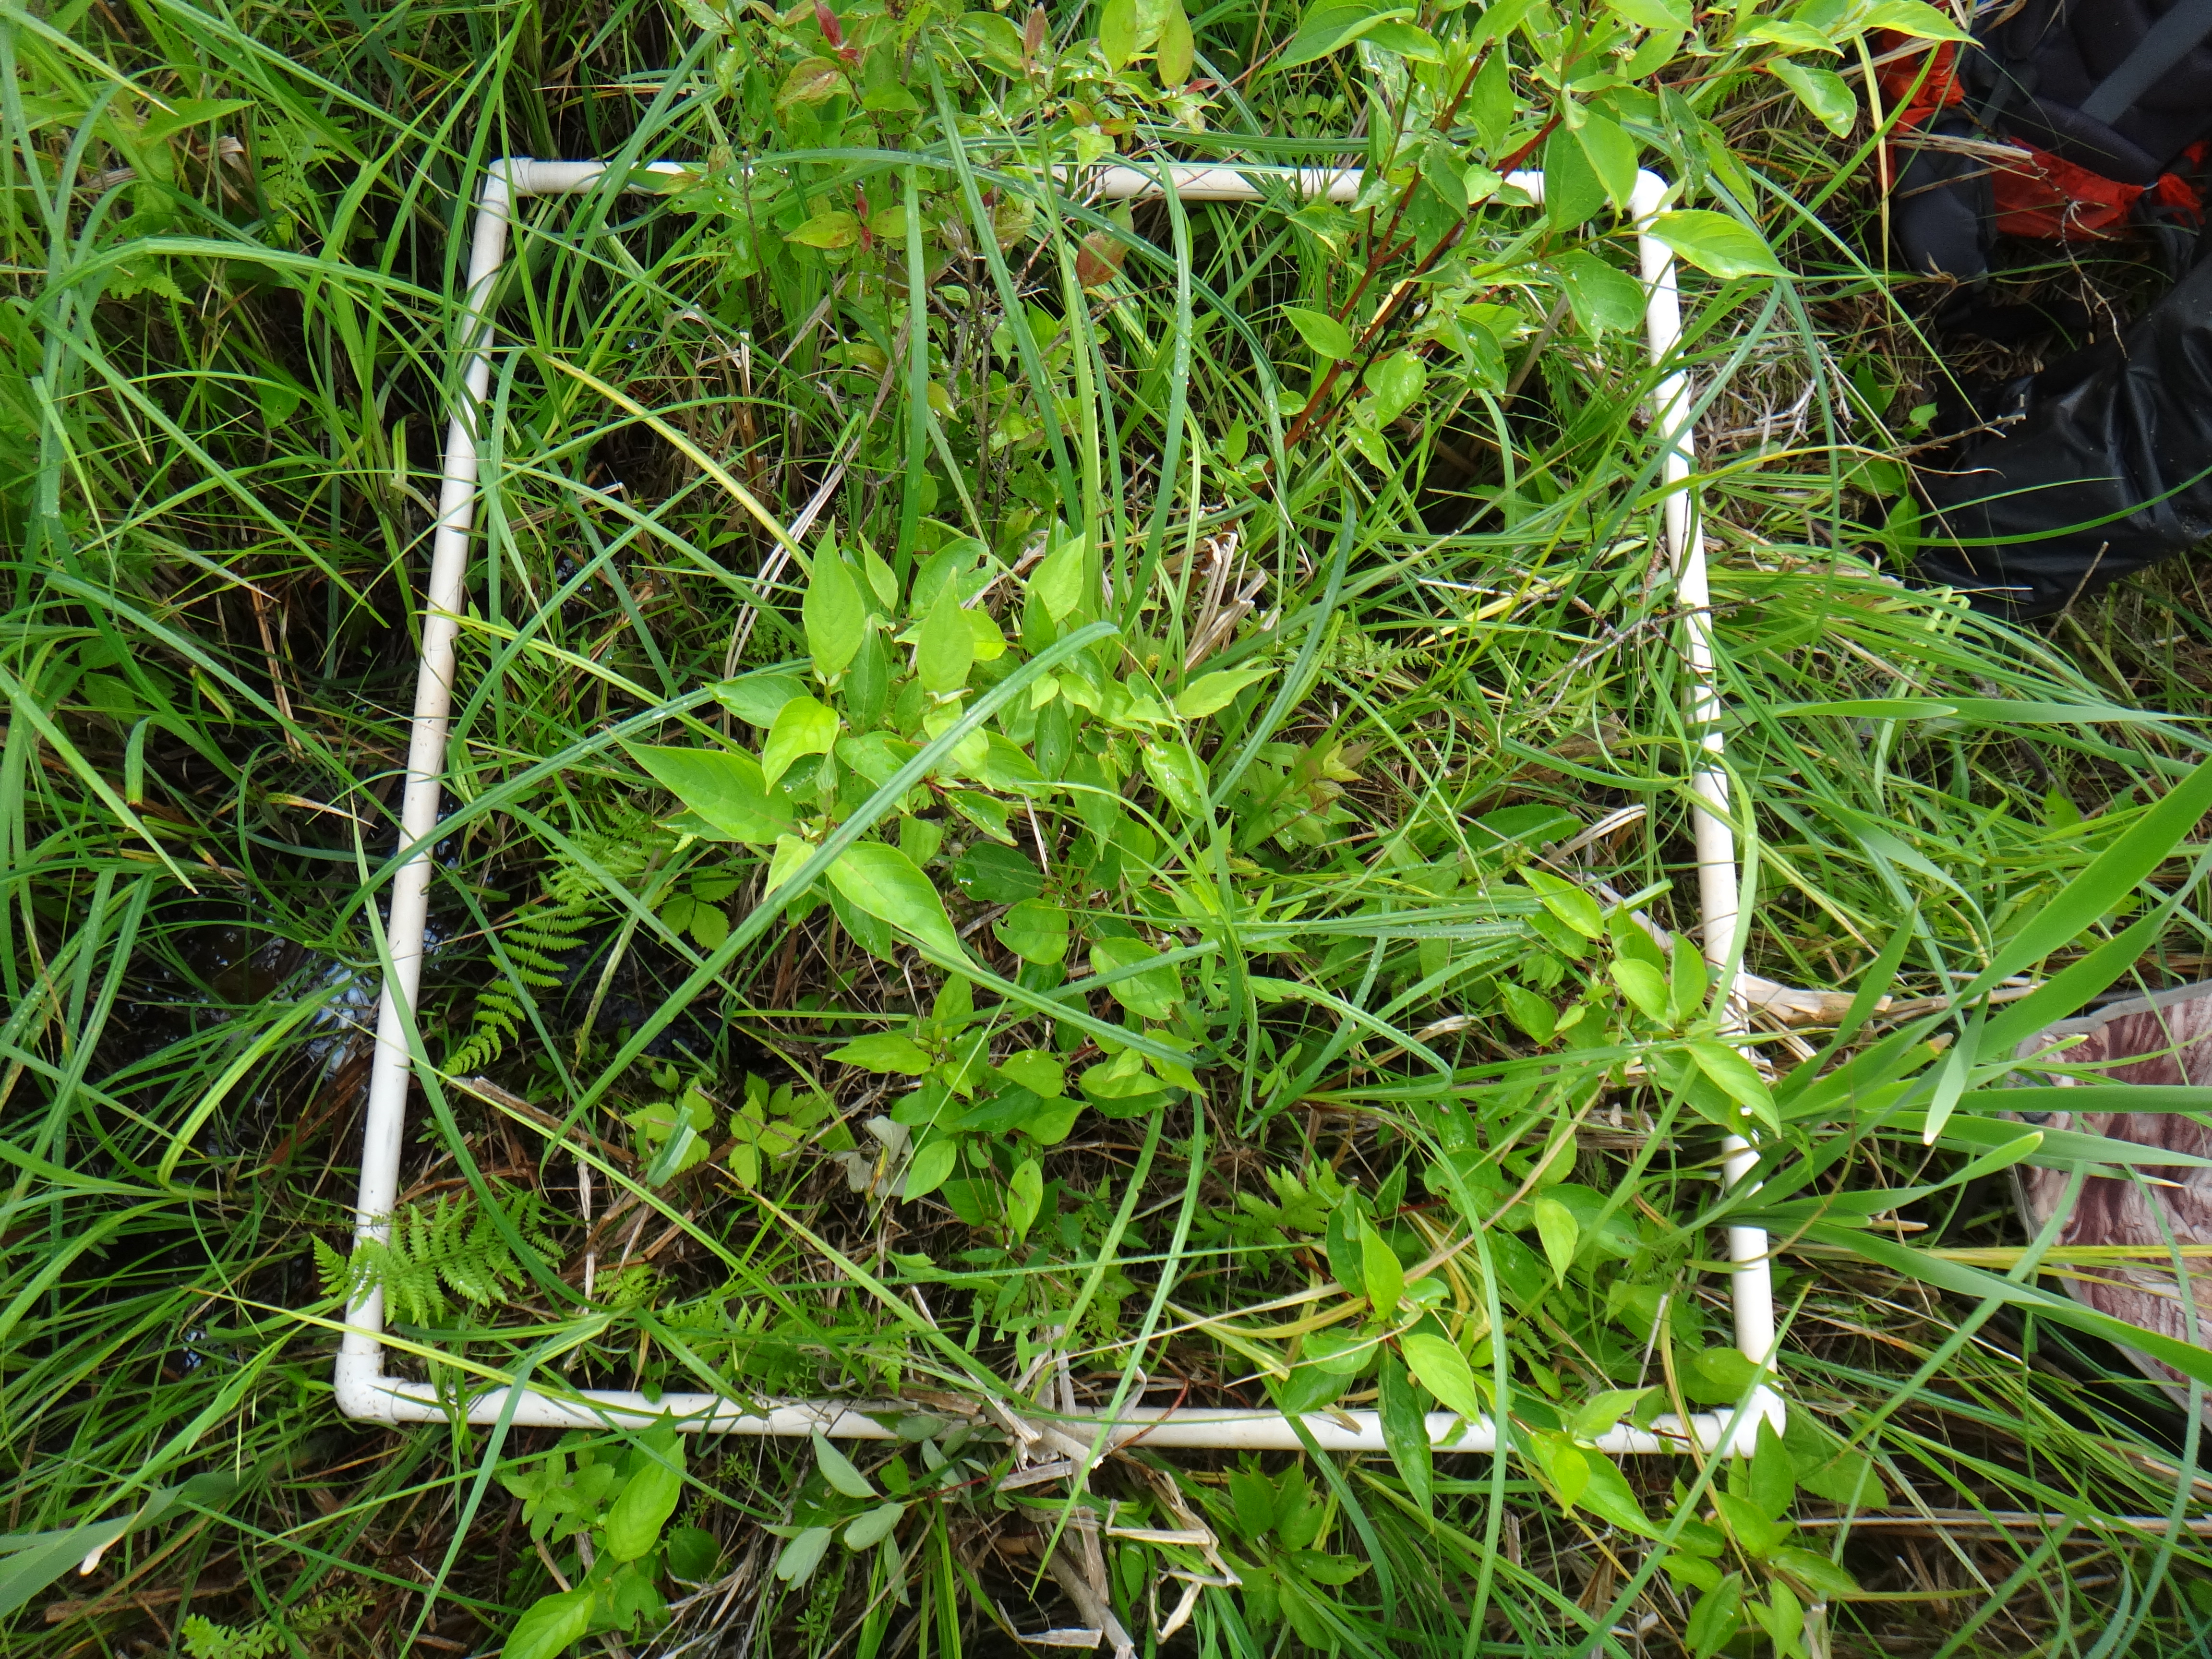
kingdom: Plantae
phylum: Tracheophyta
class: Magnoliopsida
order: Asterales
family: Campanulaceae
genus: Palustricodon
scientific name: Palustricodon aparinoides
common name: Bedstraw bellflower
